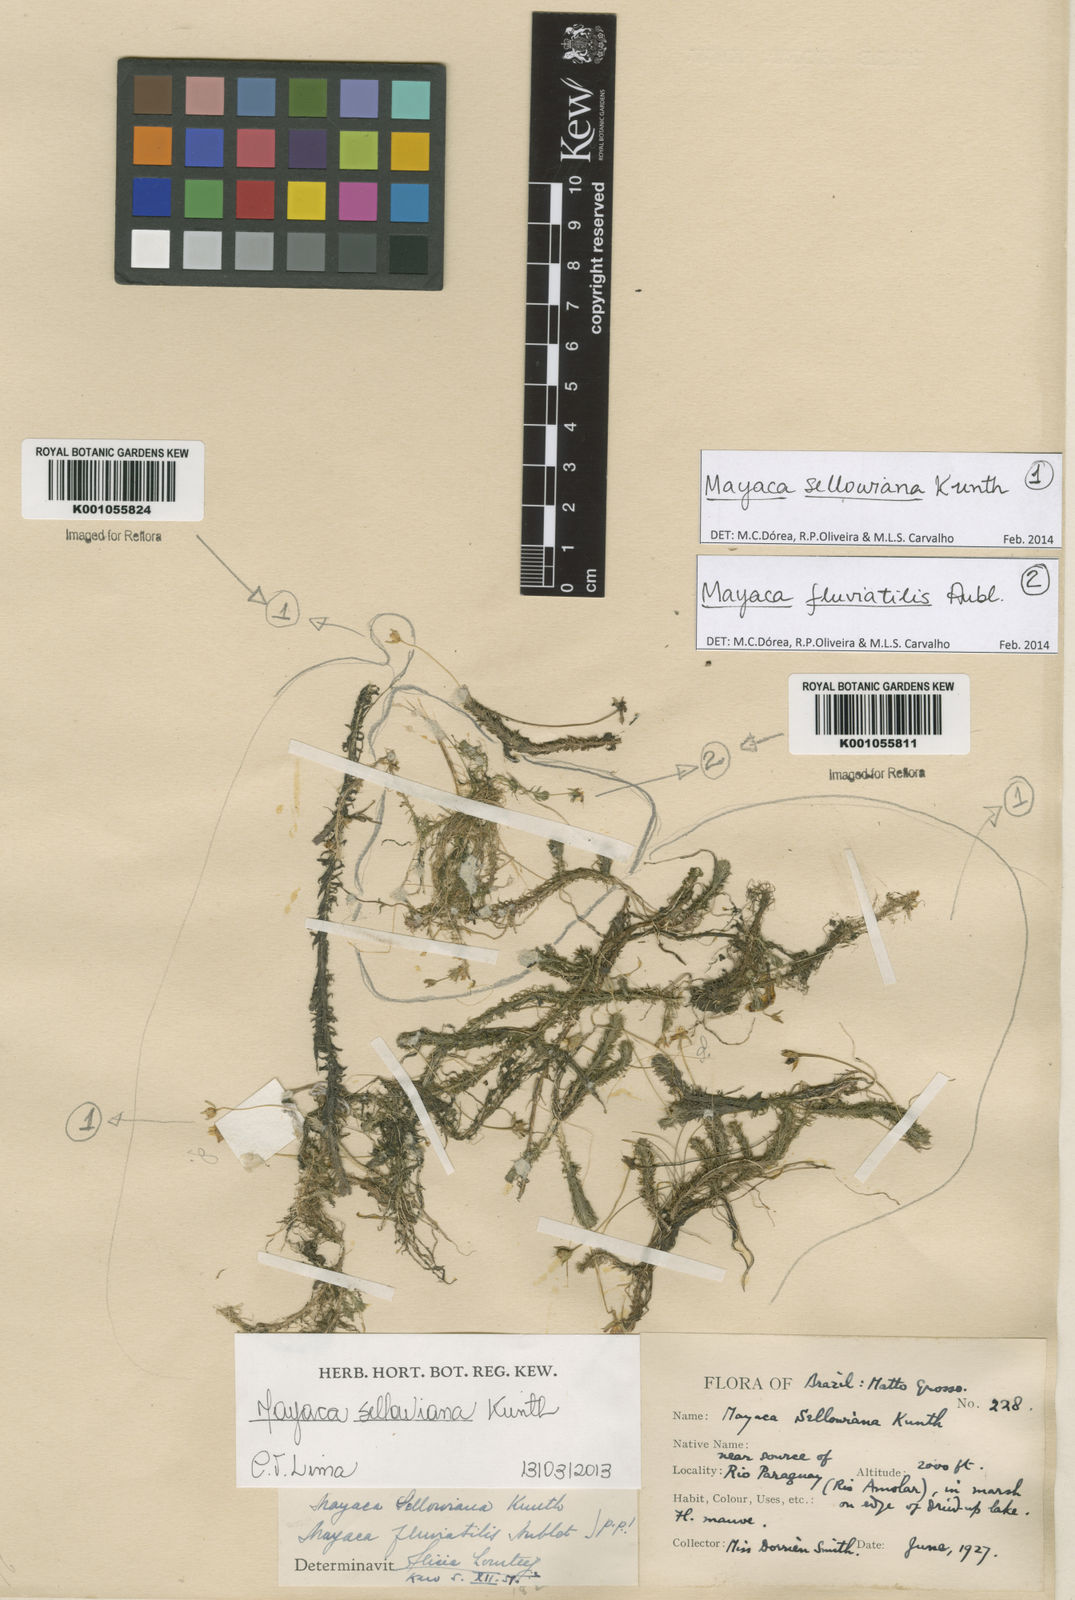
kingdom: Plantae
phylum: Tracheophyta
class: Liliopsida
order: Poales
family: Mayacaceae
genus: Mayaca
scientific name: Mayaca sellowiana
